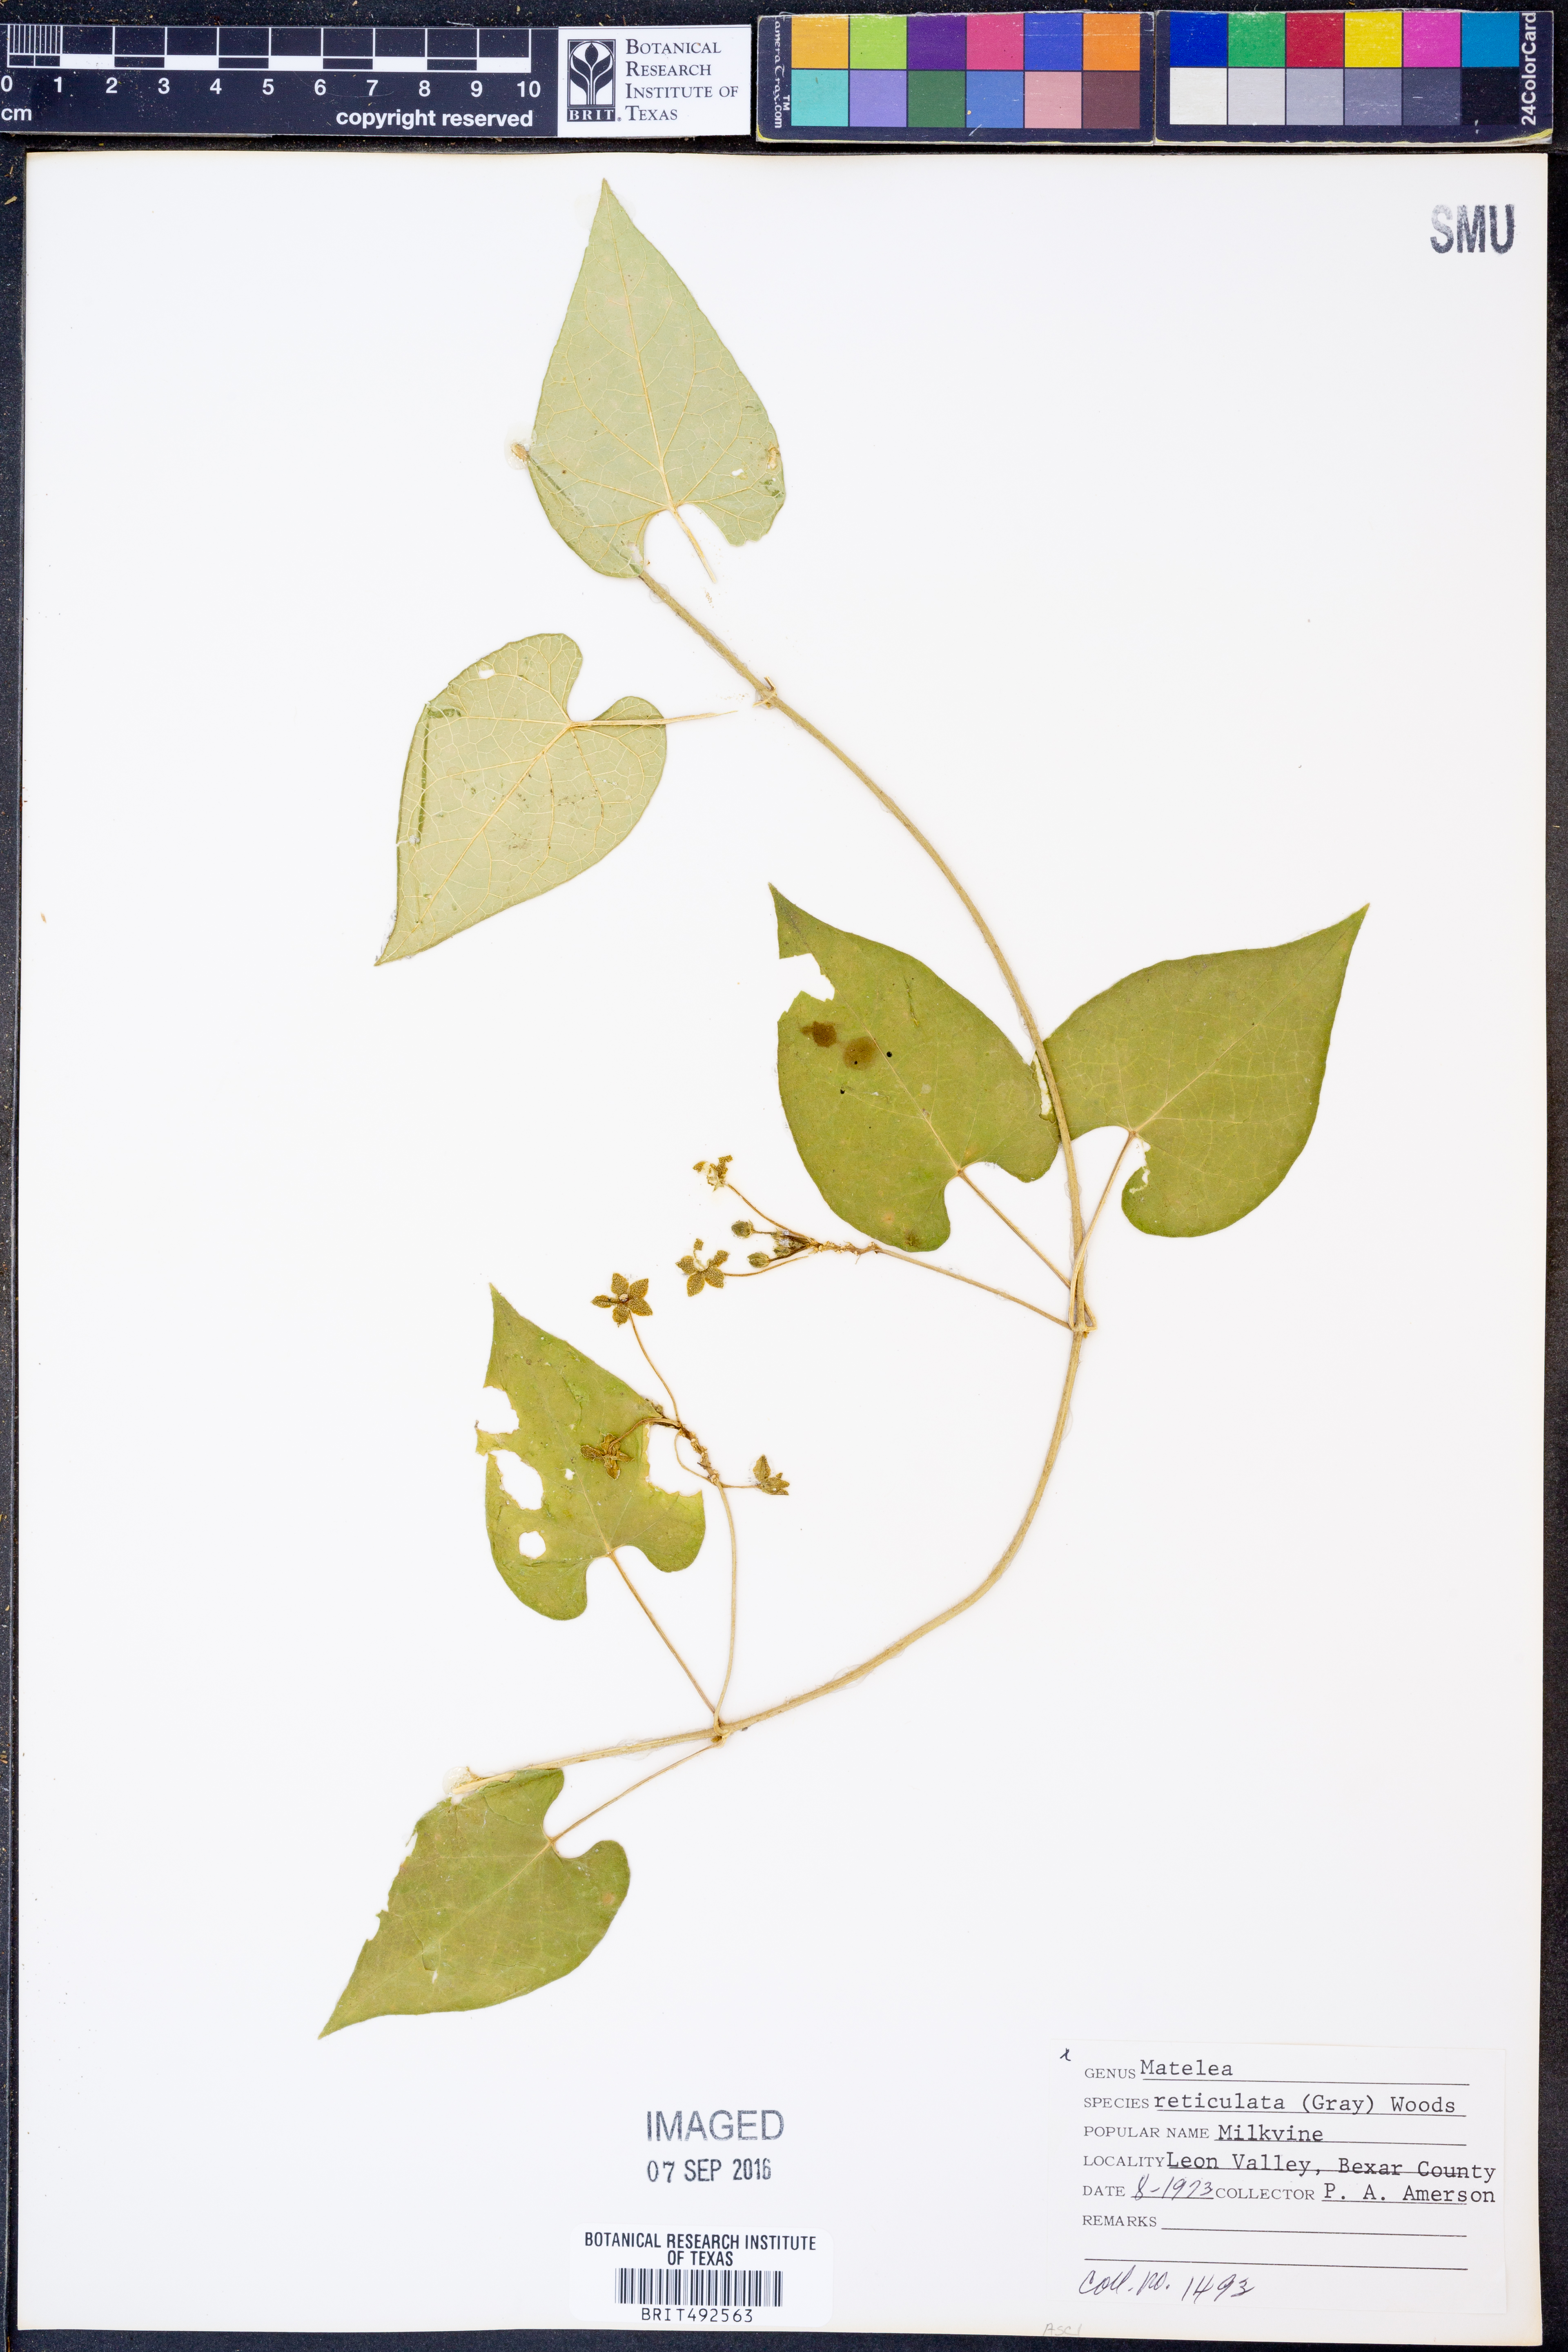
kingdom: Plantae
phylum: Tracheophyta
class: Magnoliopsida
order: Gentianales
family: Apocynaceae
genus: Dictyanthus
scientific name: Dictyanthus reticulatus
